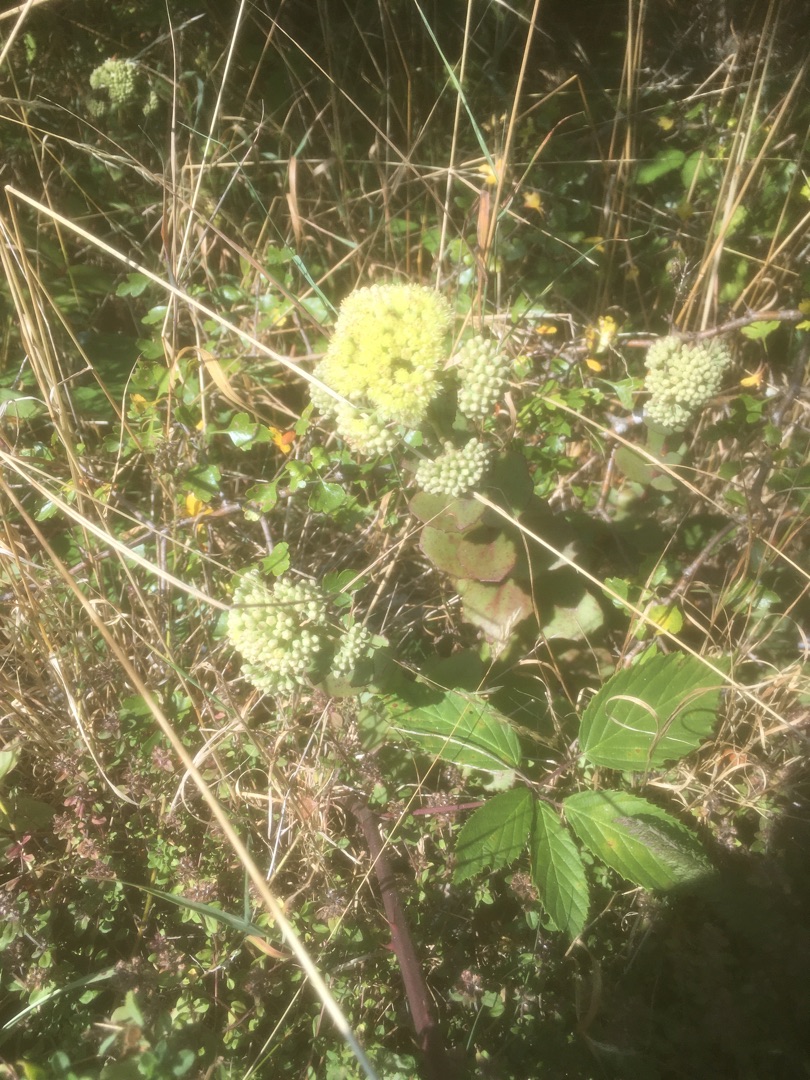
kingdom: Plantae
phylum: Tracheophyta
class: Magnoliopsida
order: Saxifragales
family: Crassulaceae
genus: Hylotelephium
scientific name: Hylotelephium maximum
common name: Almindelig sankthansurt
